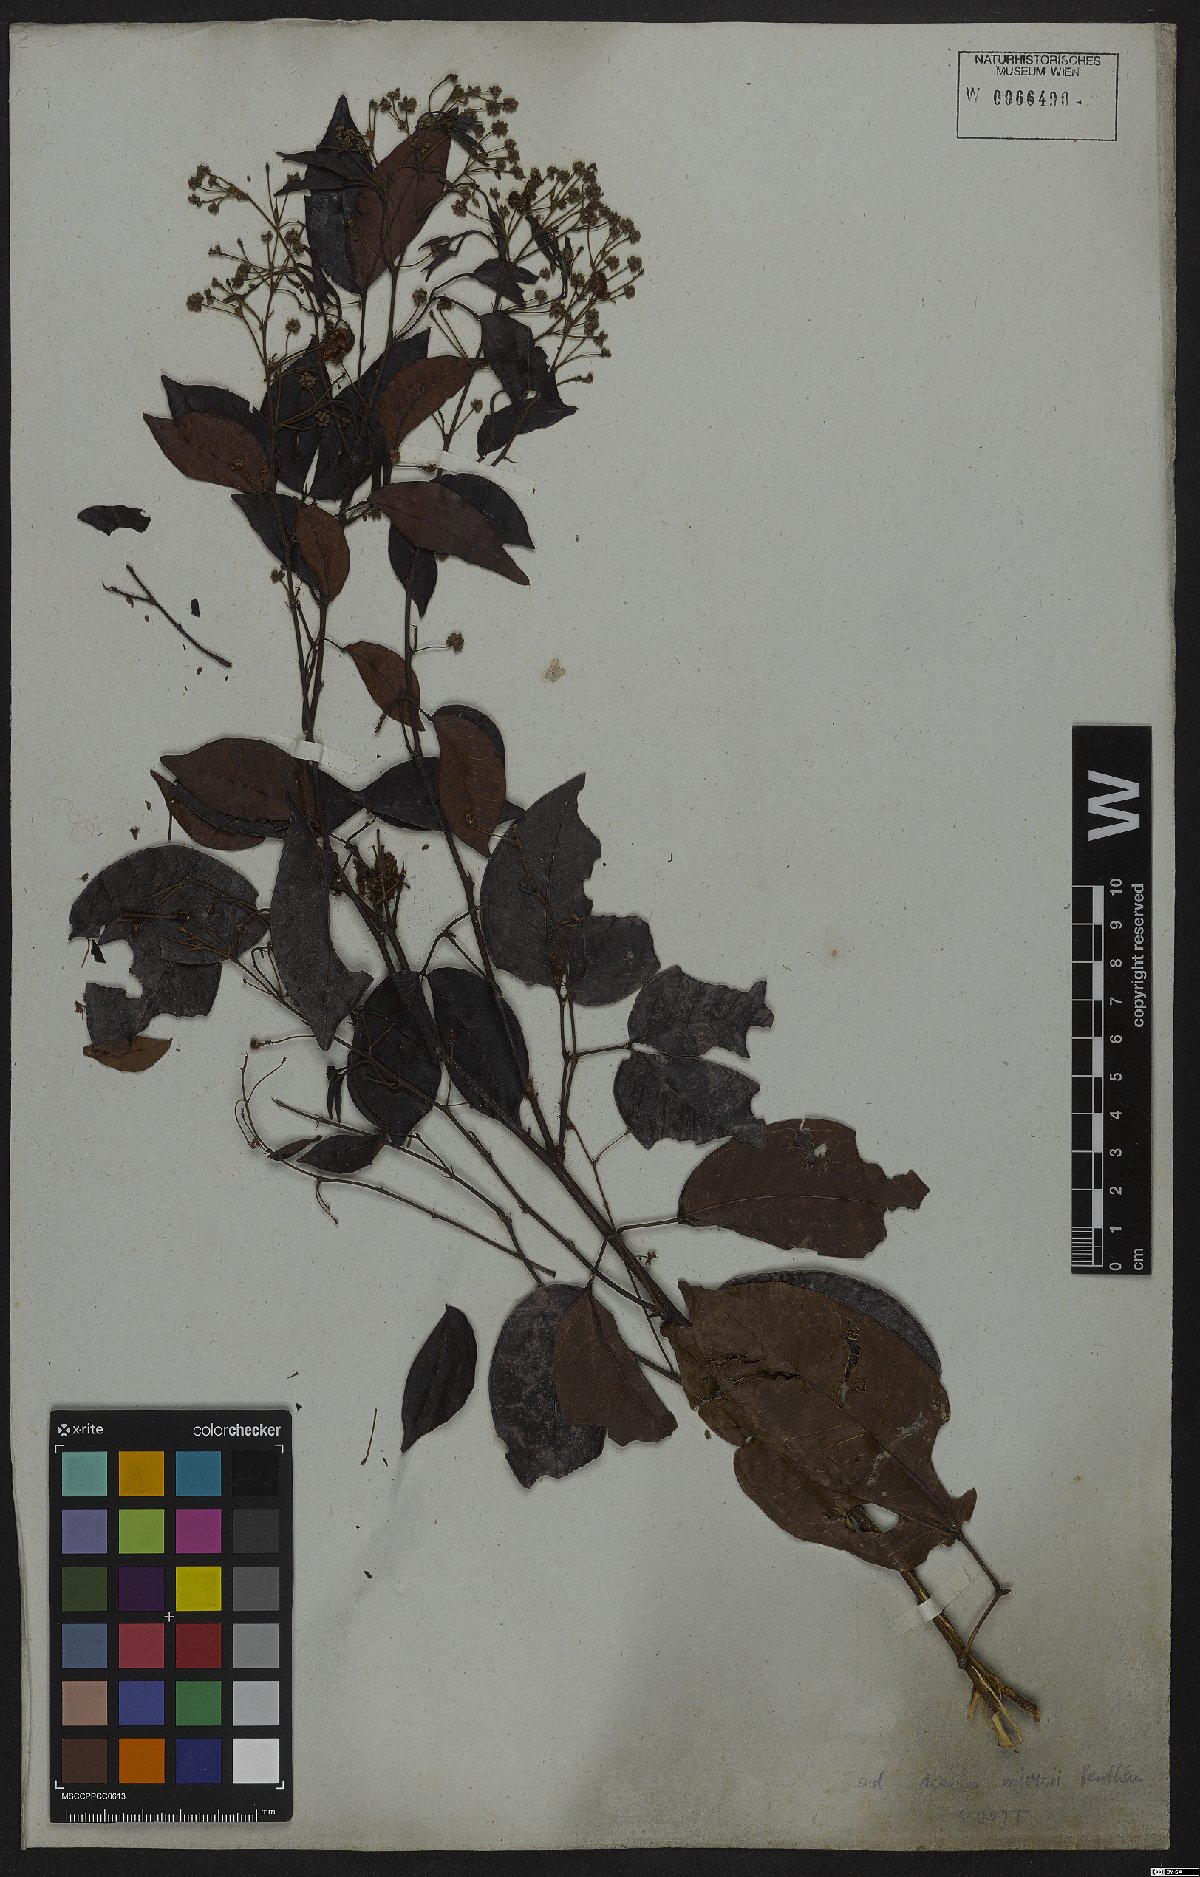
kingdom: Plantae
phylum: Tracheophyta
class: Magnoliopsida
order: Fabales
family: Fabaceae
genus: Parasenegalia
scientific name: Parasenegalia miersii
